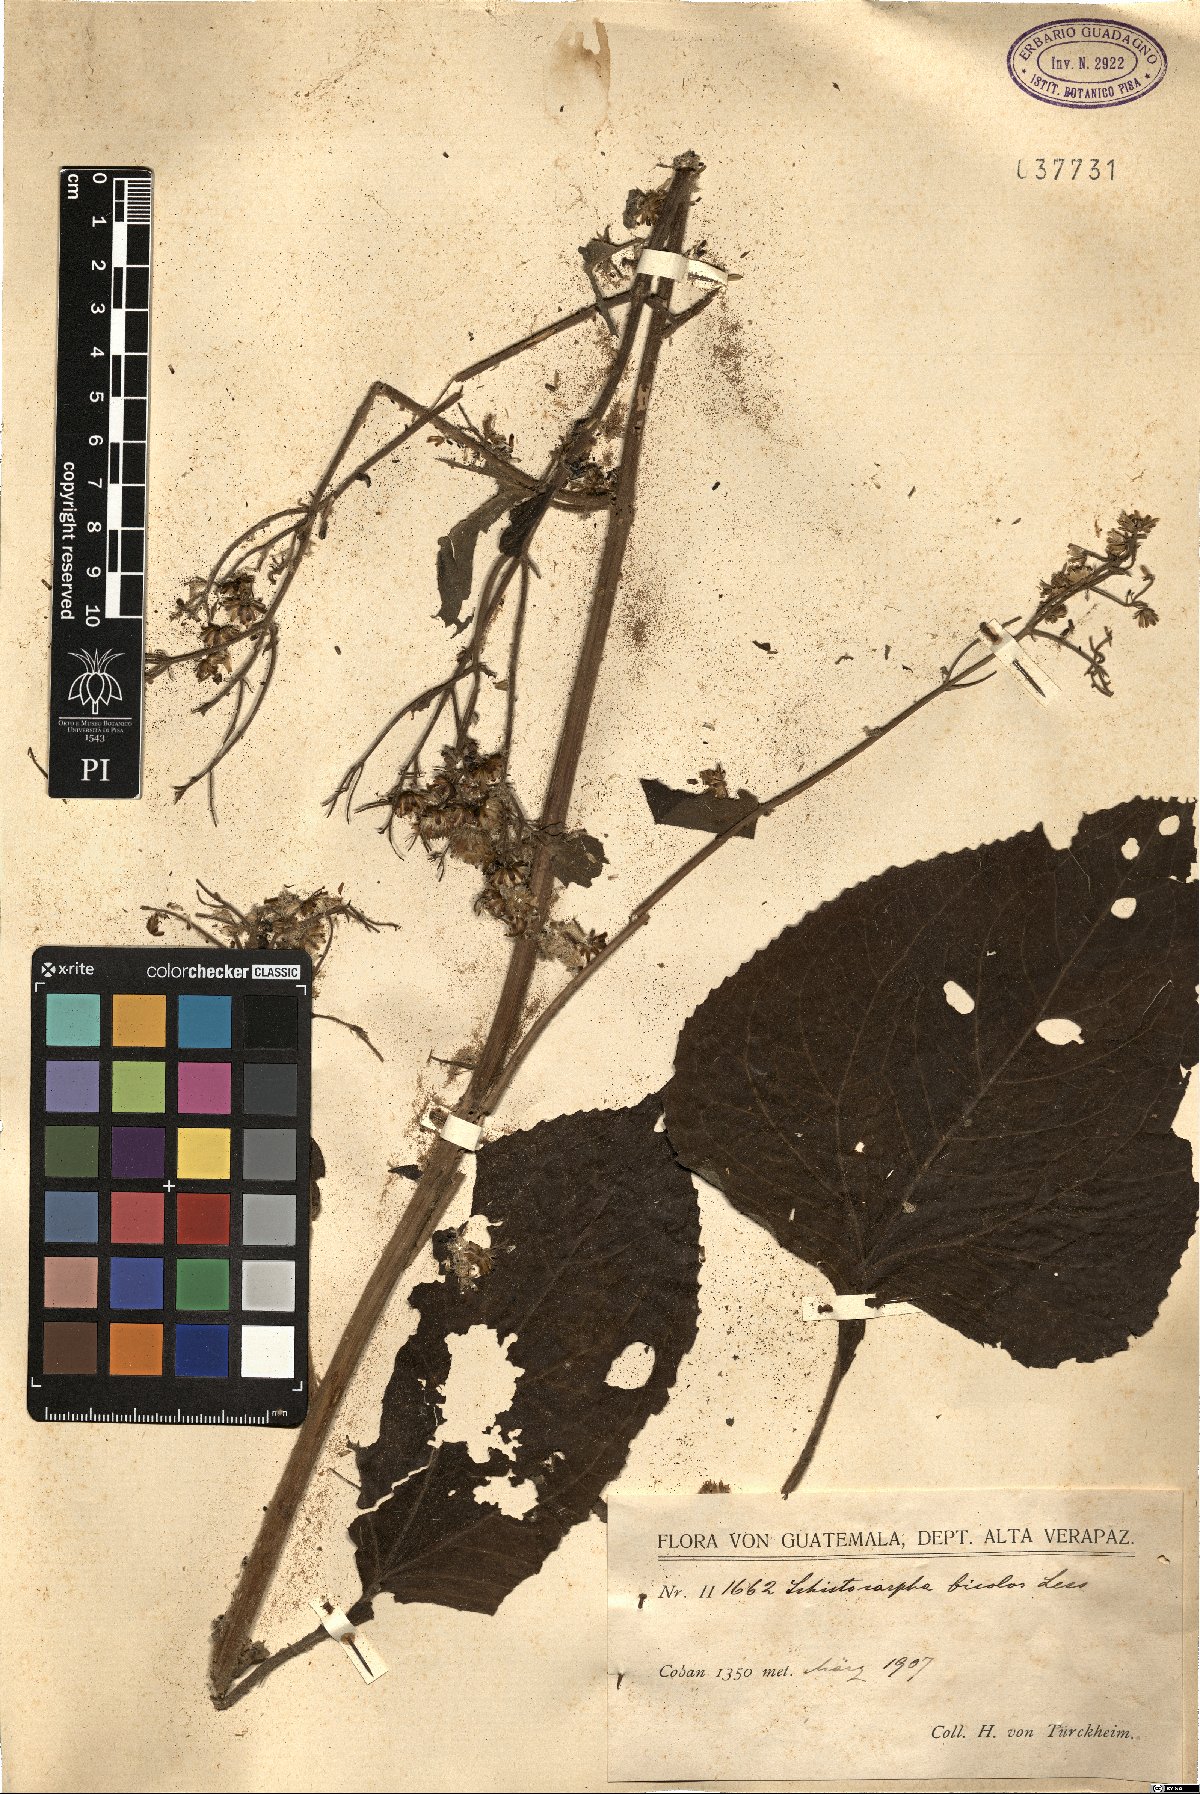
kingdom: Plantae
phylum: Tracheophyta
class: Magnoliopsida
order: Asterales
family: Asteraceae
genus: Schistocarpha
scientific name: Schistocarpha bicolor
